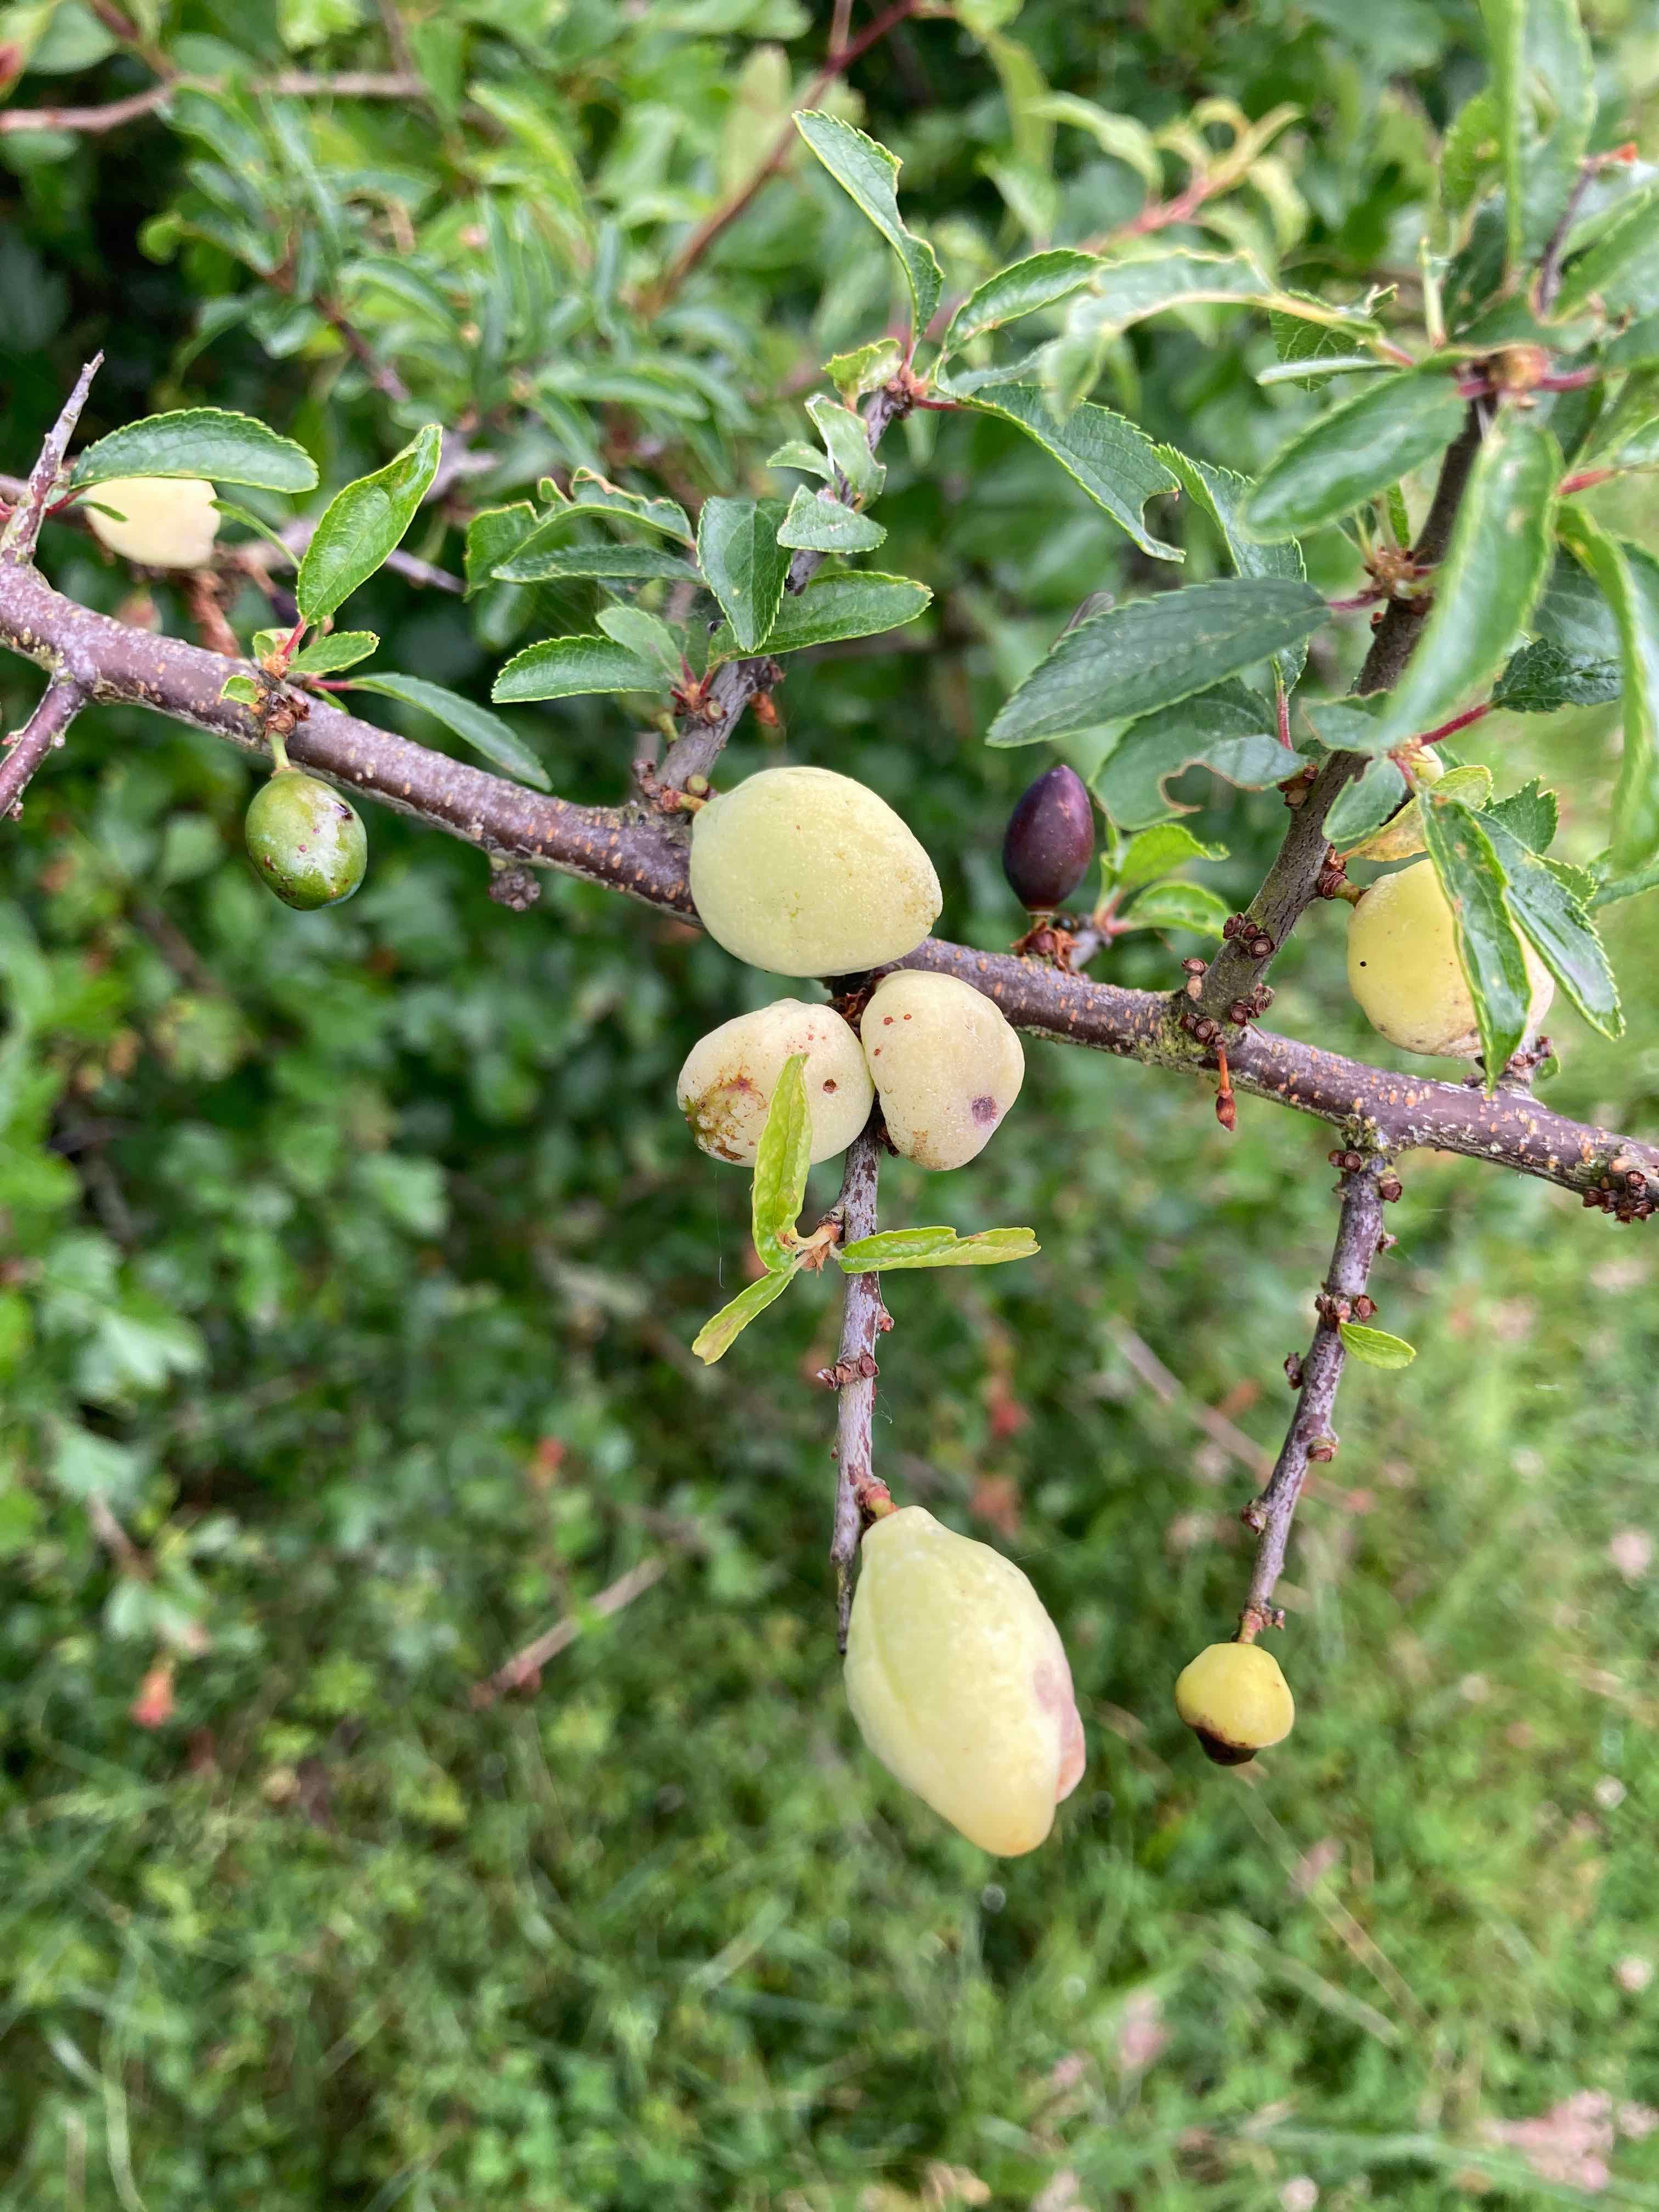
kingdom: Fungi
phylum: Ascomycota
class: Taphrinomycetes
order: Taphrinales
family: Taphrinaceae
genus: Taphrina
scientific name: Taphrina pruni
